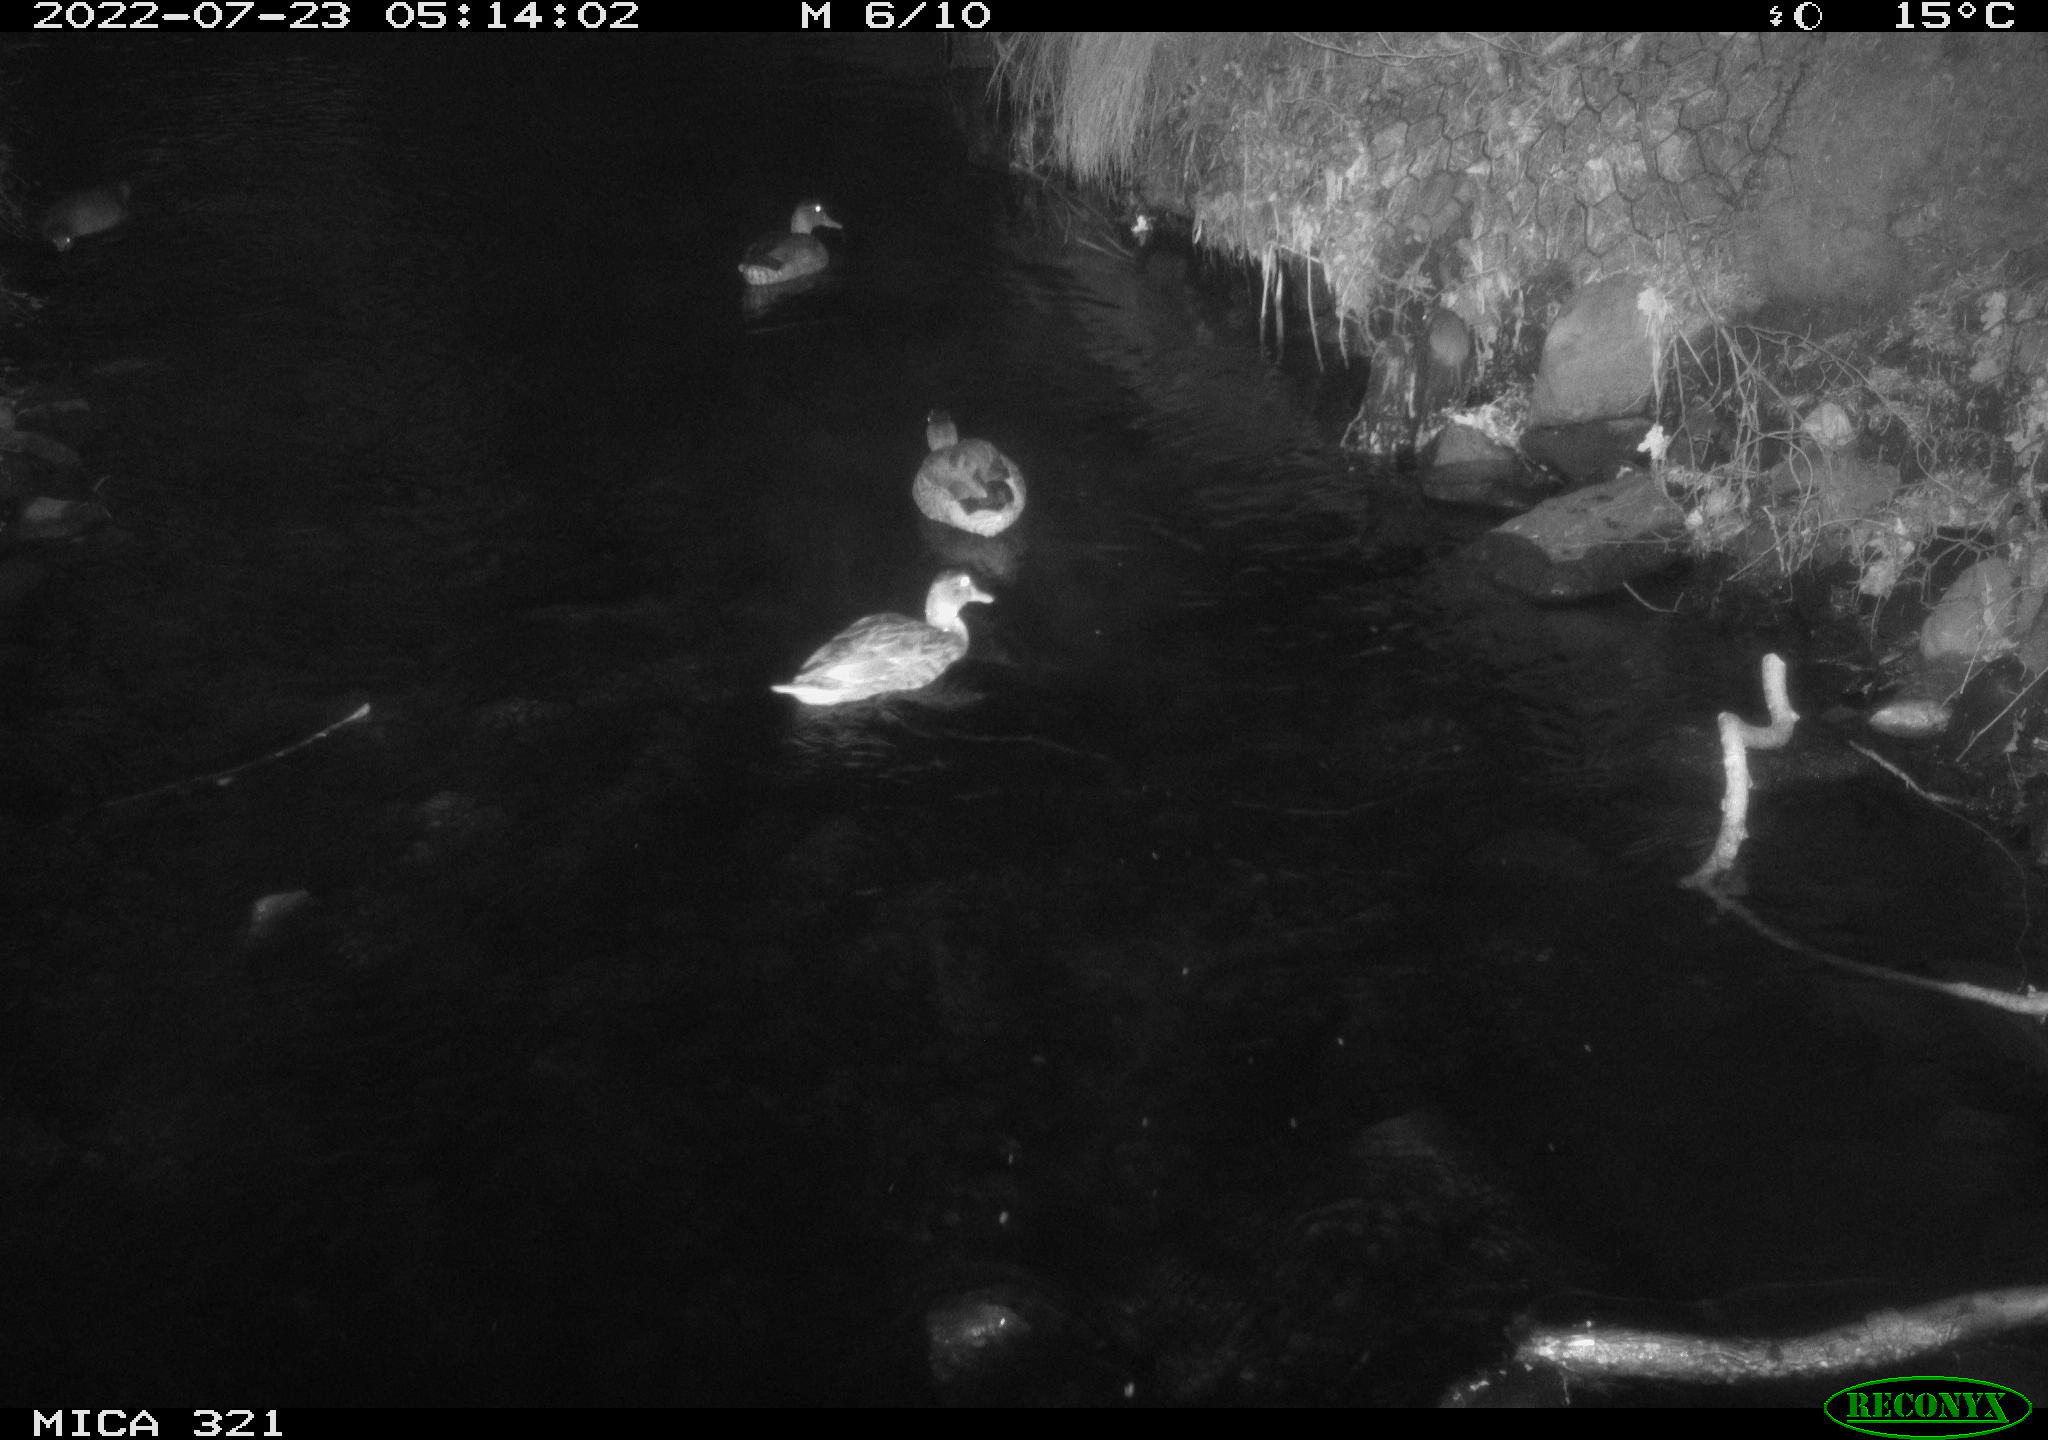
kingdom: Animalia
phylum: Chordata
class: Aves
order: Anseriformes
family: Anatidae
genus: Anas
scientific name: Anas platyrhynchos
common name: Mallard
